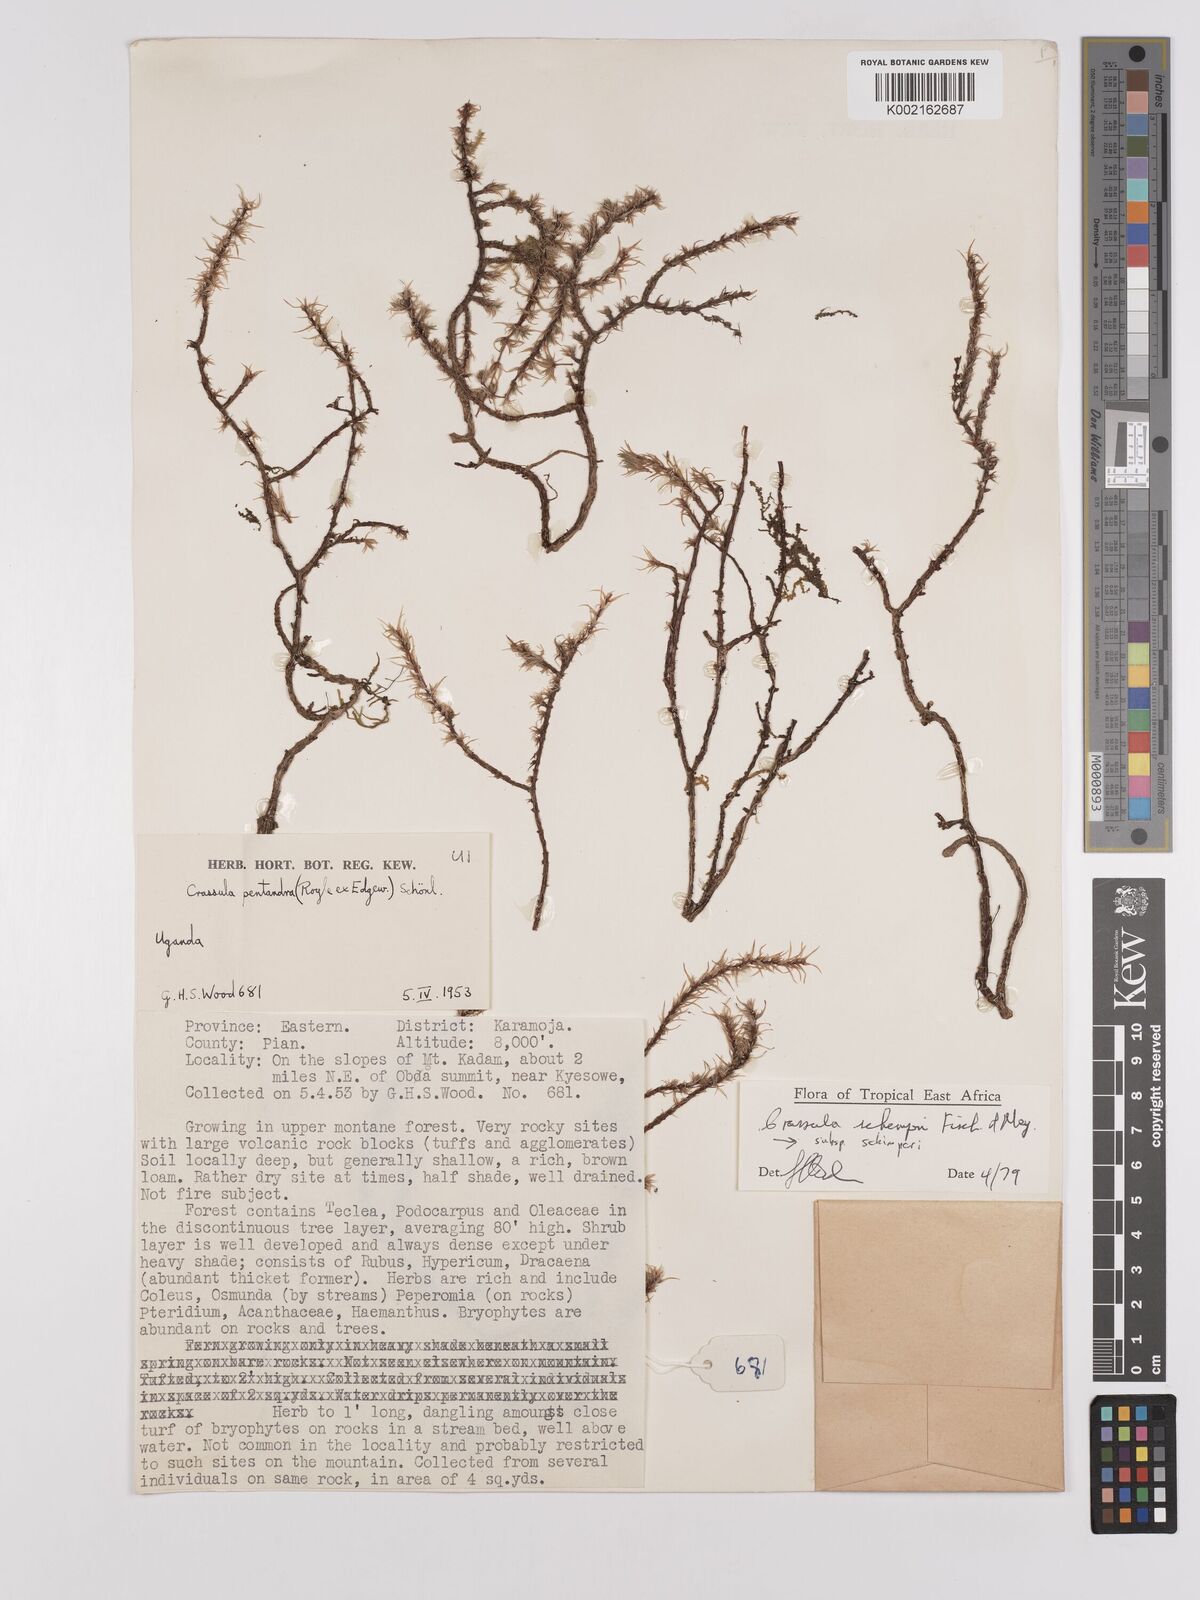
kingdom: Plantae
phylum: Tracheophyta
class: Magnoliopsida
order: Saxifragales
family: Crassulaceae
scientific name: Crassulaceae
